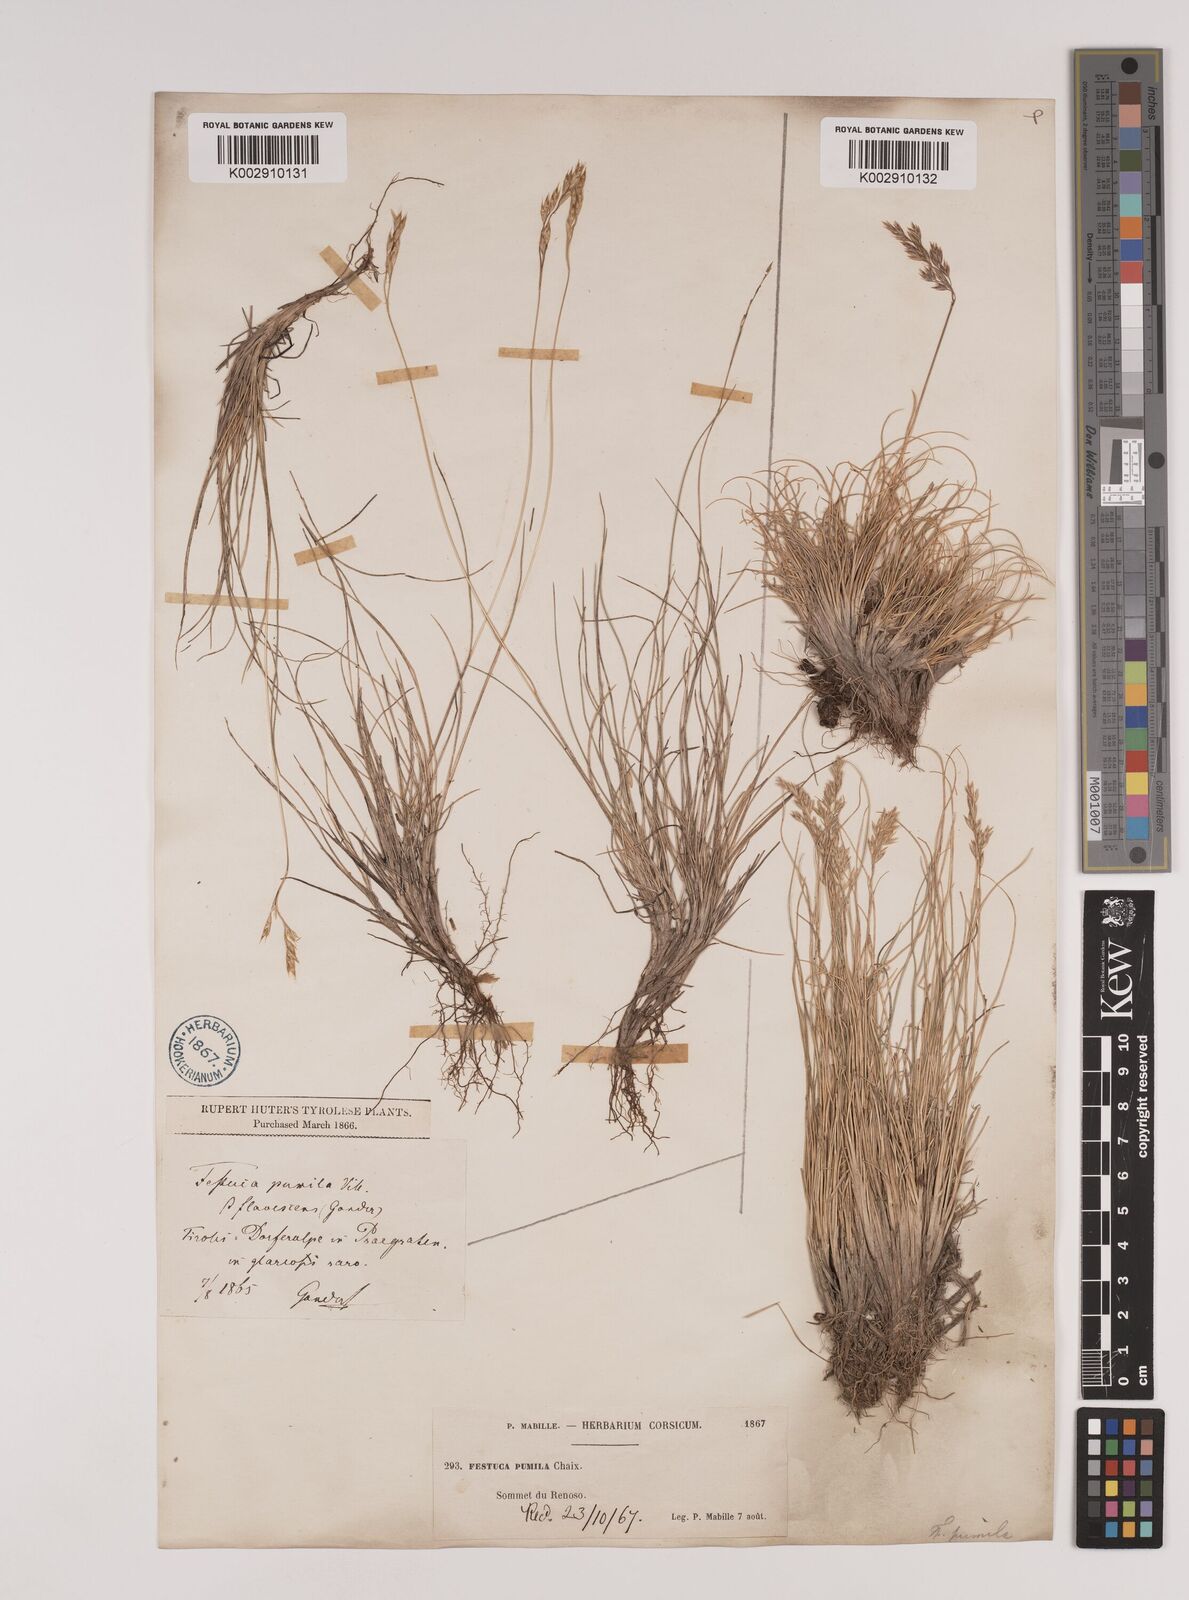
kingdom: Plantae
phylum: Tracheophyta
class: Liliopsida
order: Poales
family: Poaceae
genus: Festuca
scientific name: Festuca
